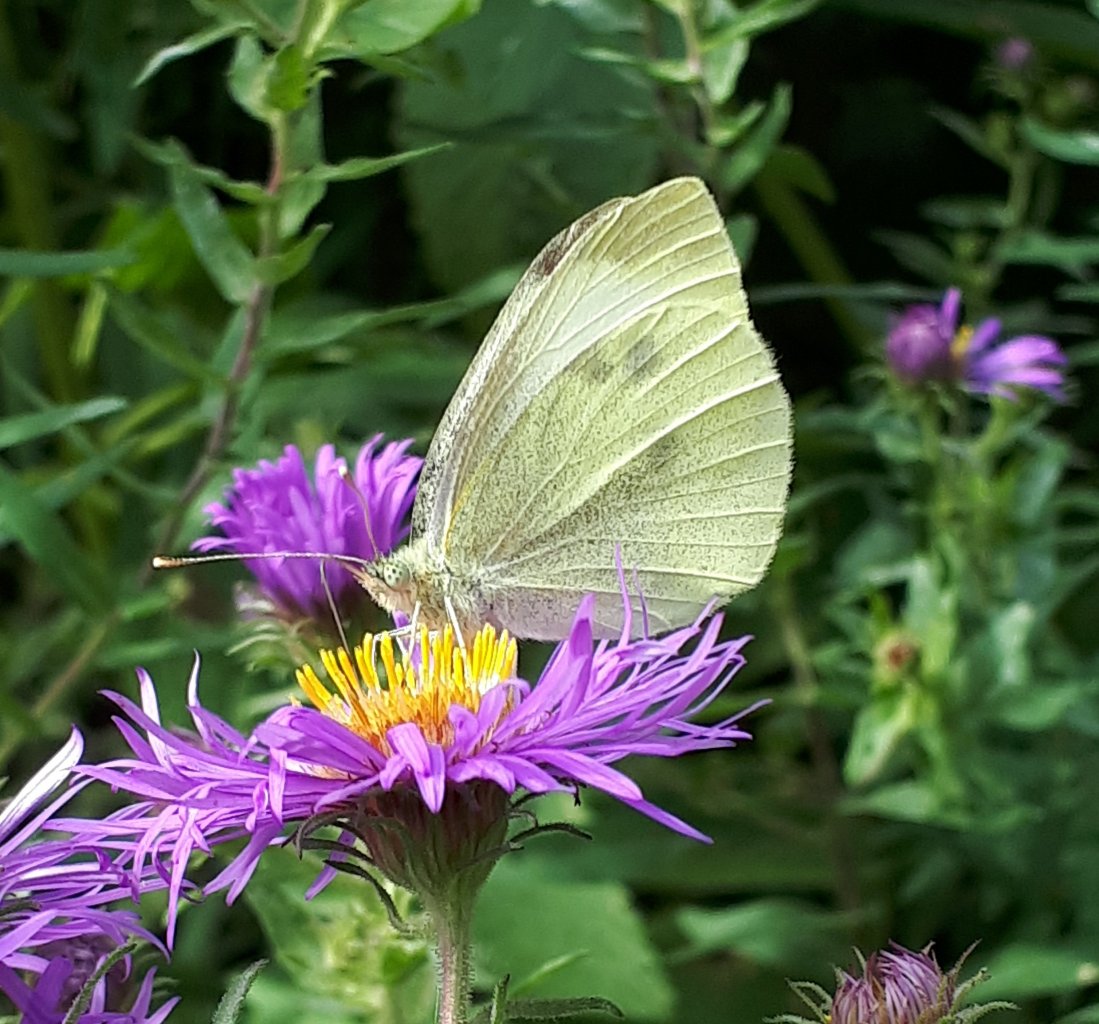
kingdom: Animalia
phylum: Arthropoda
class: Insecta
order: Lepidoptera
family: Pieridae
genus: Pieris
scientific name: Pieris rapae
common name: Cabbage White
